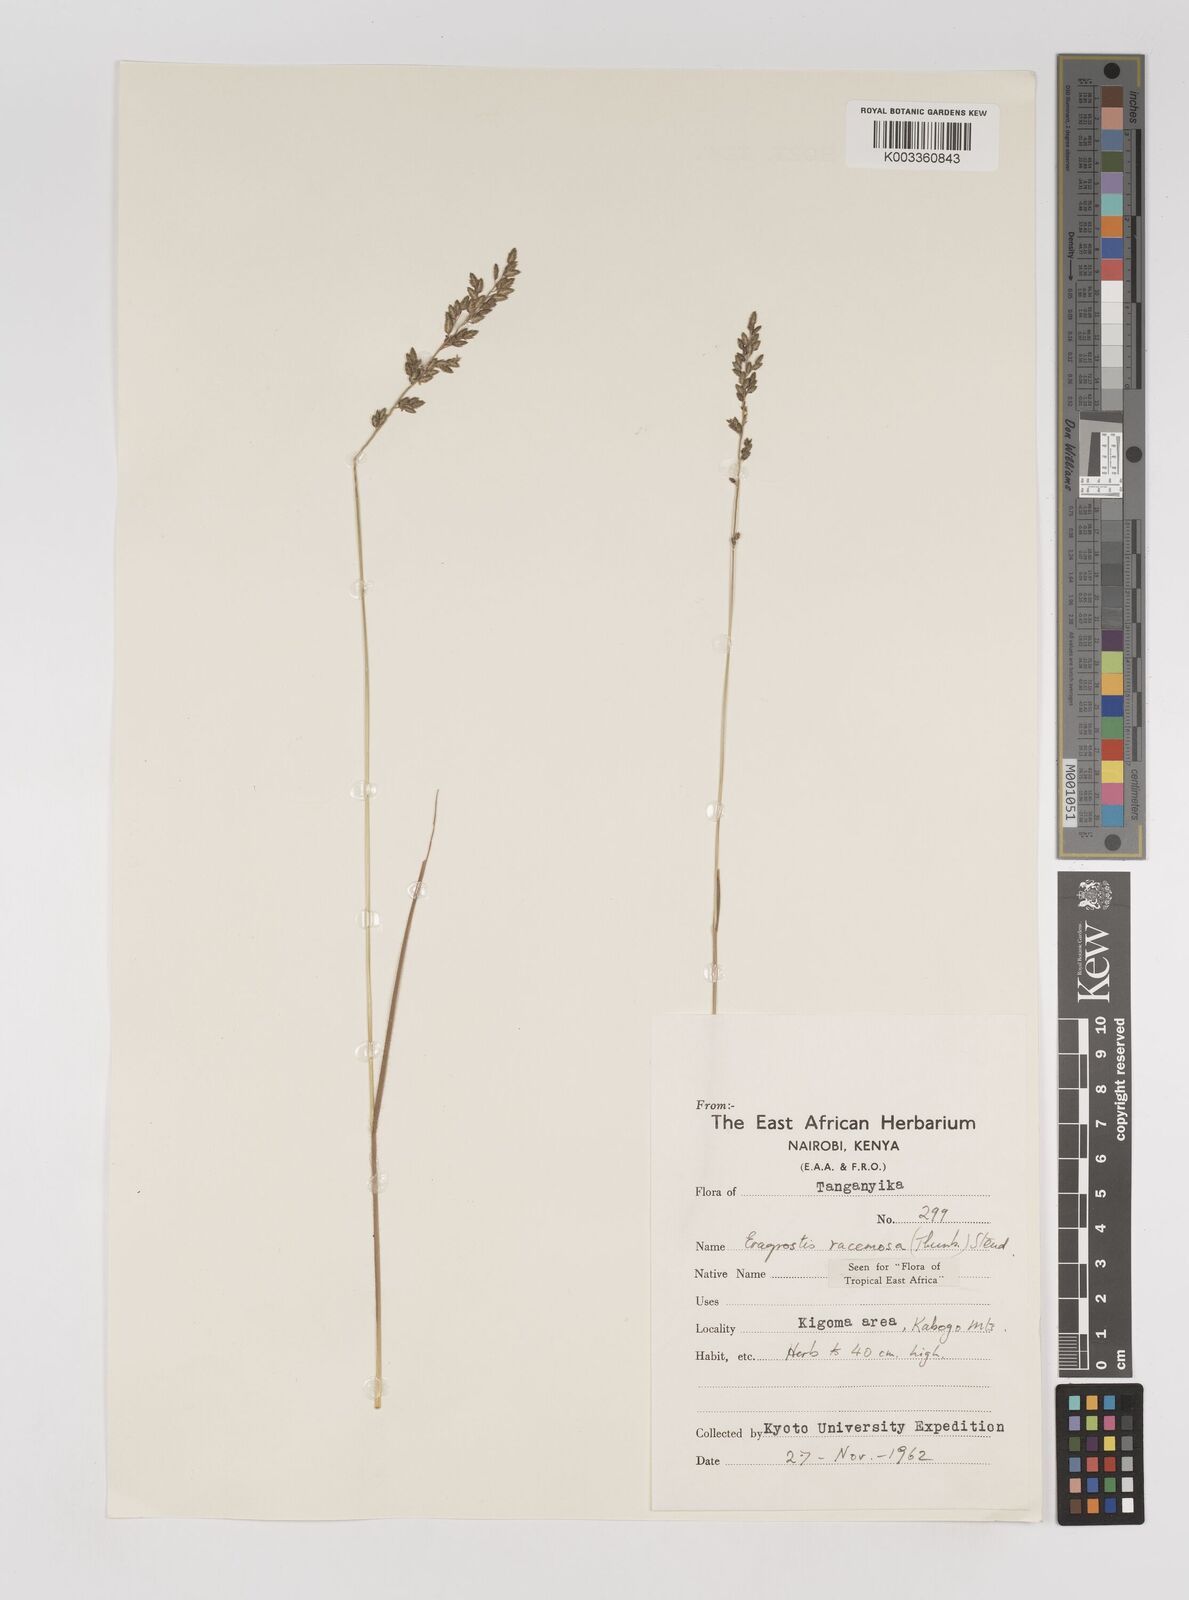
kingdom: Plantae
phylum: Tracheophyta
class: Liliopsida
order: Poales
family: Poaceae
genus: Eragrostis
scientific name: Eragrostis racemosa
